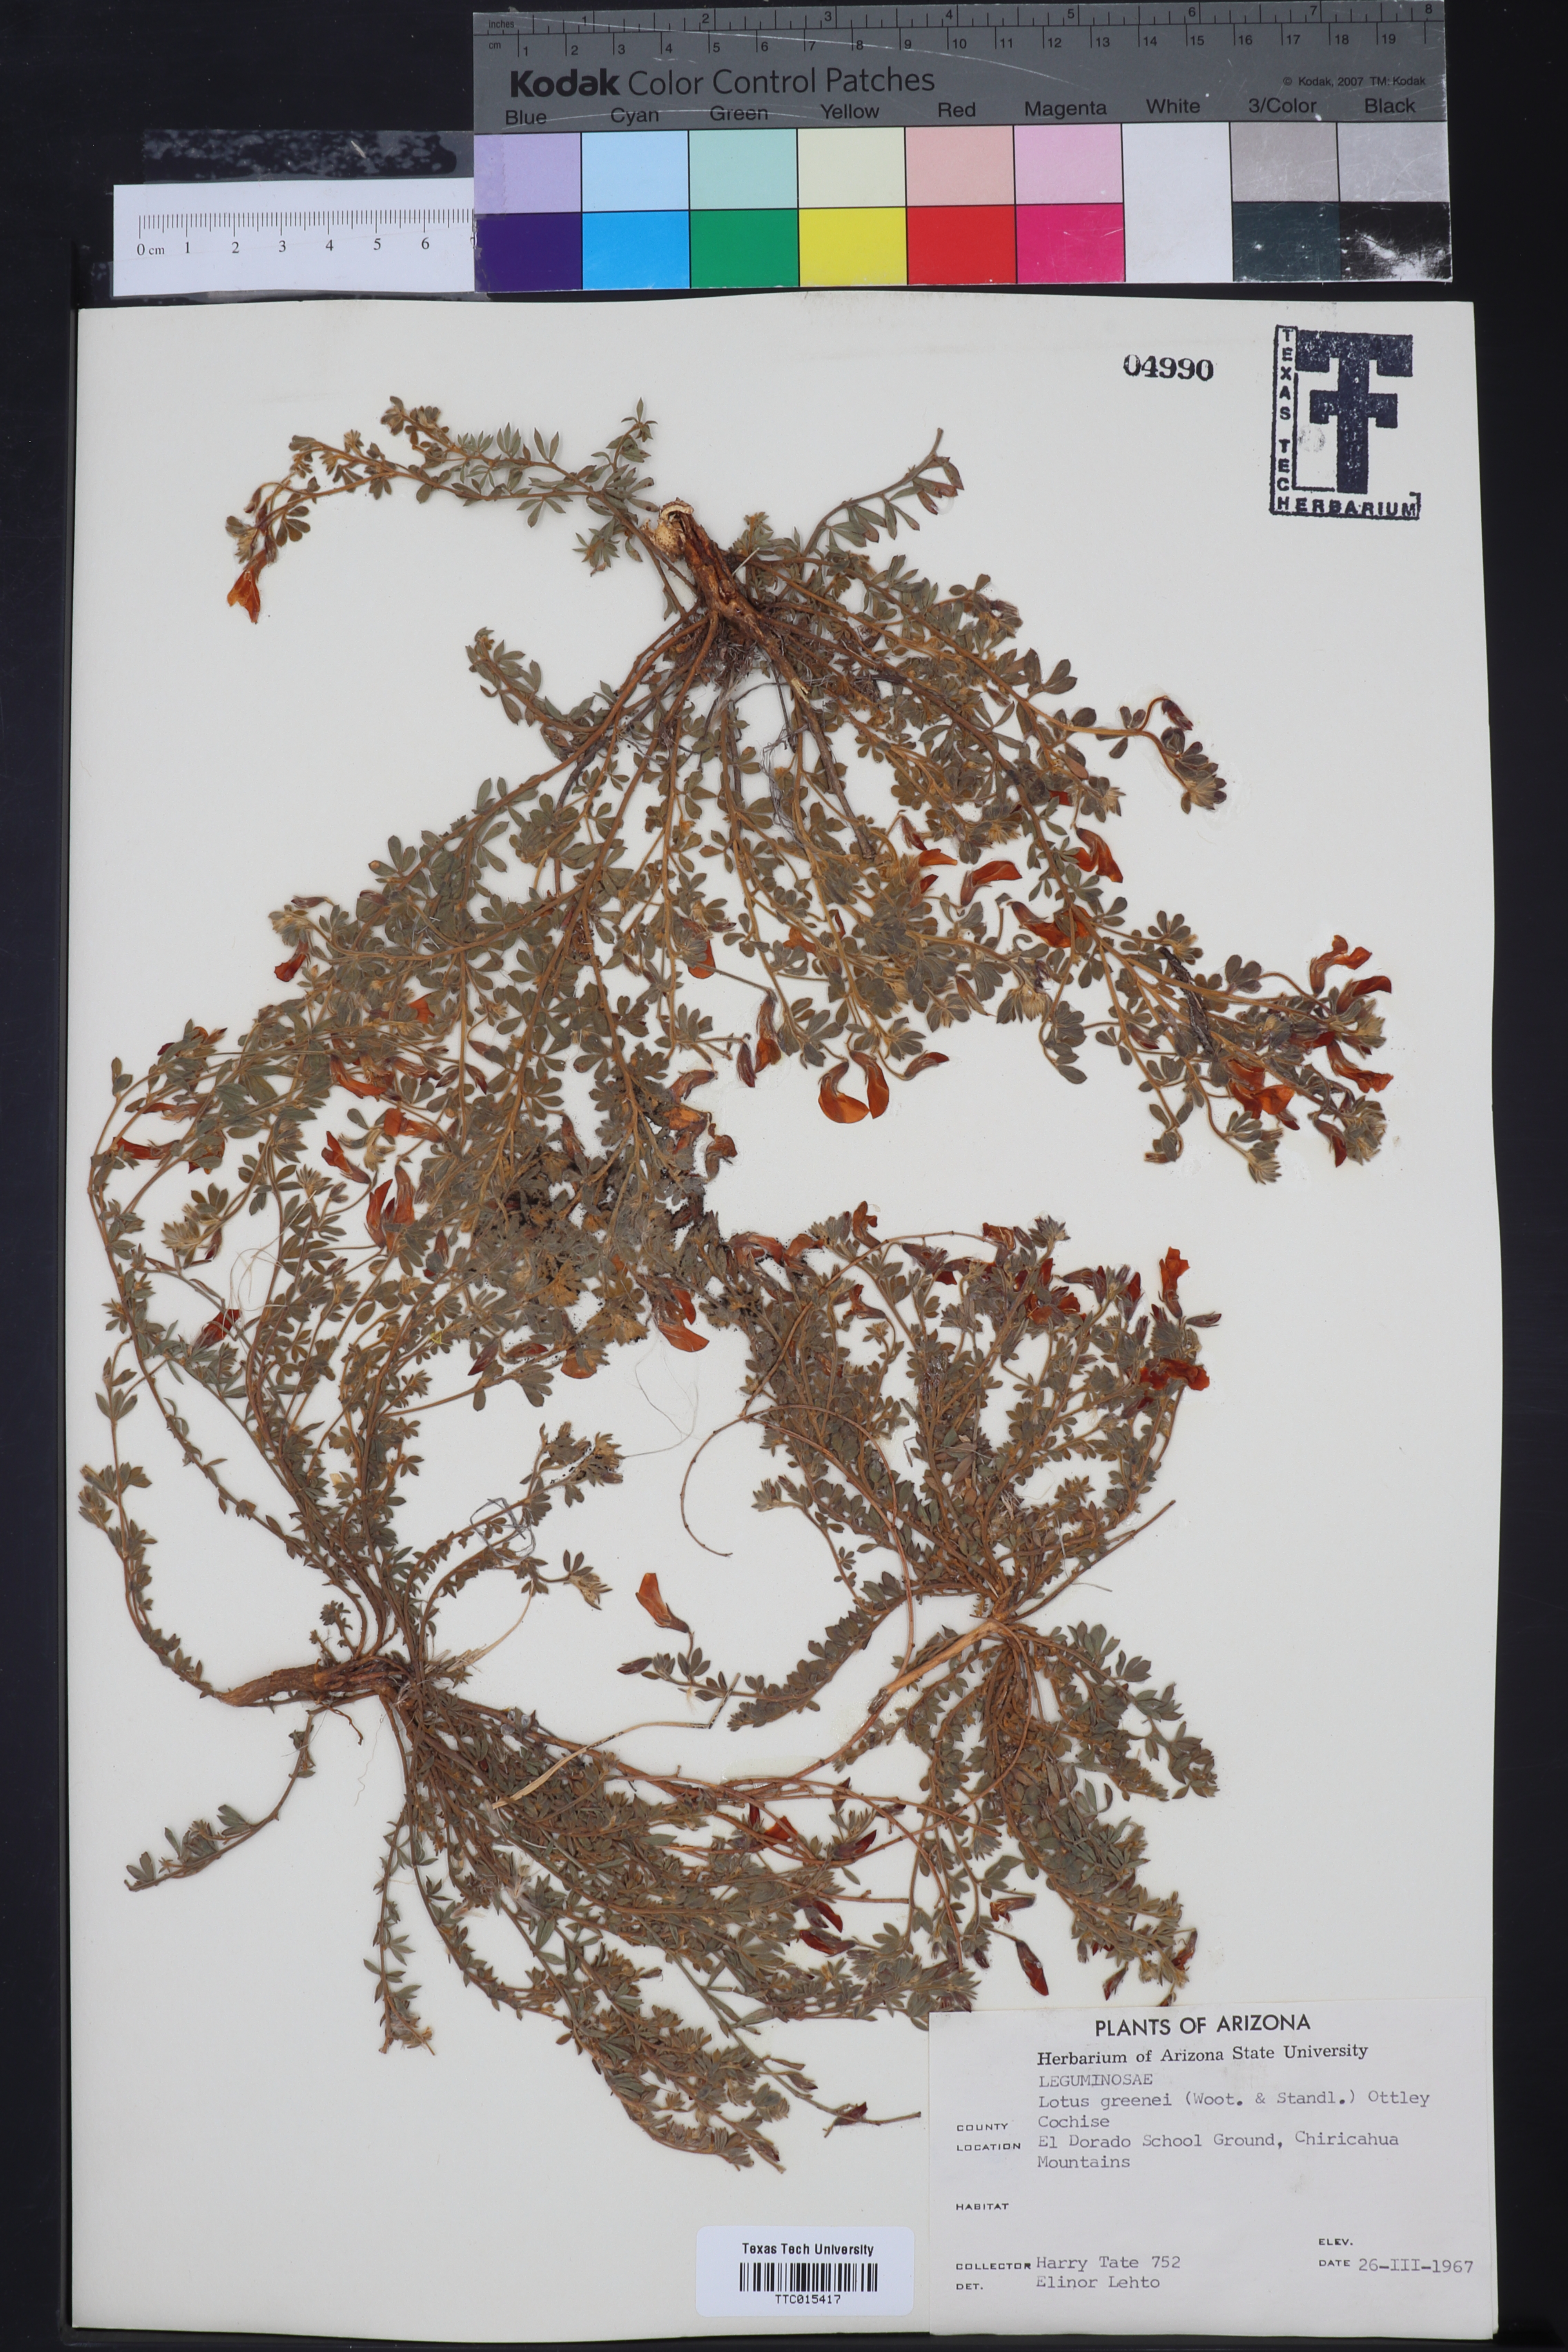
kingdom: Plantae
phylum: Tracheophyta
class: Magnoliopsida
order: Fabales
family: Fabaceae
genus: Acmispon
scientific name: Acmispon neomexicanus
